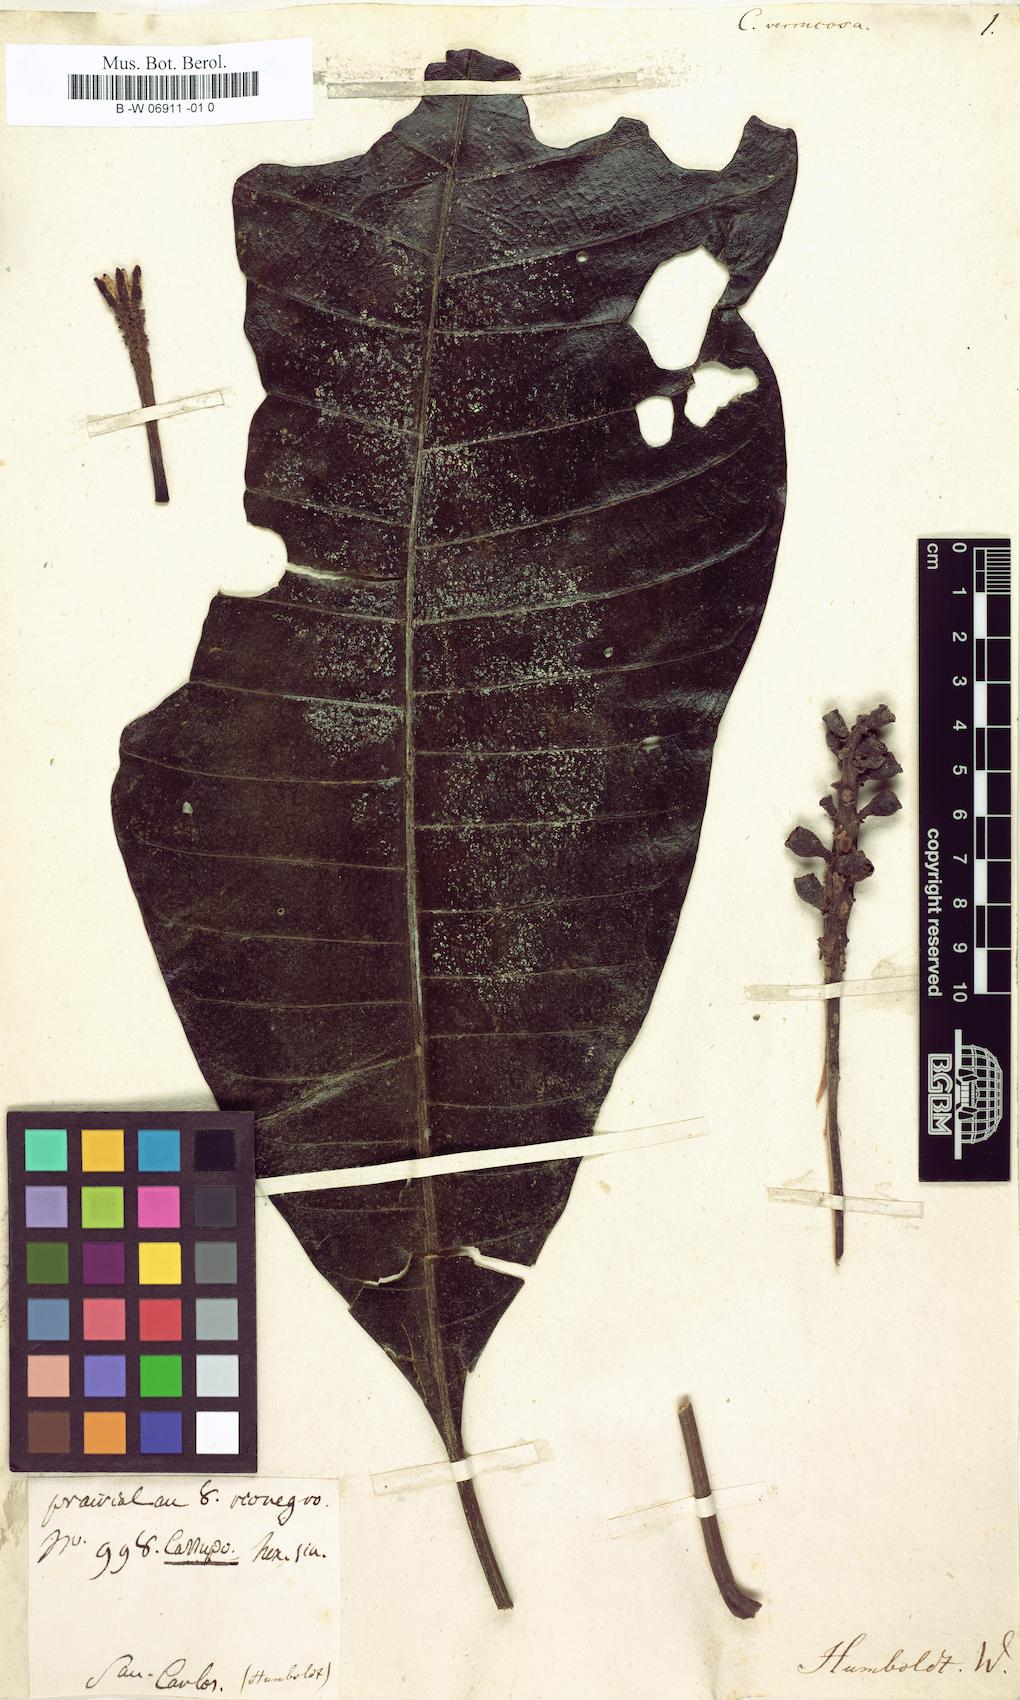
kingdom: Plantae
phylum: Tracheophyta
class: Magnoliopsida
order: Gentianales
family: Rubiaceae
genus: Isertia
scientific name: Isertia verrucosa
